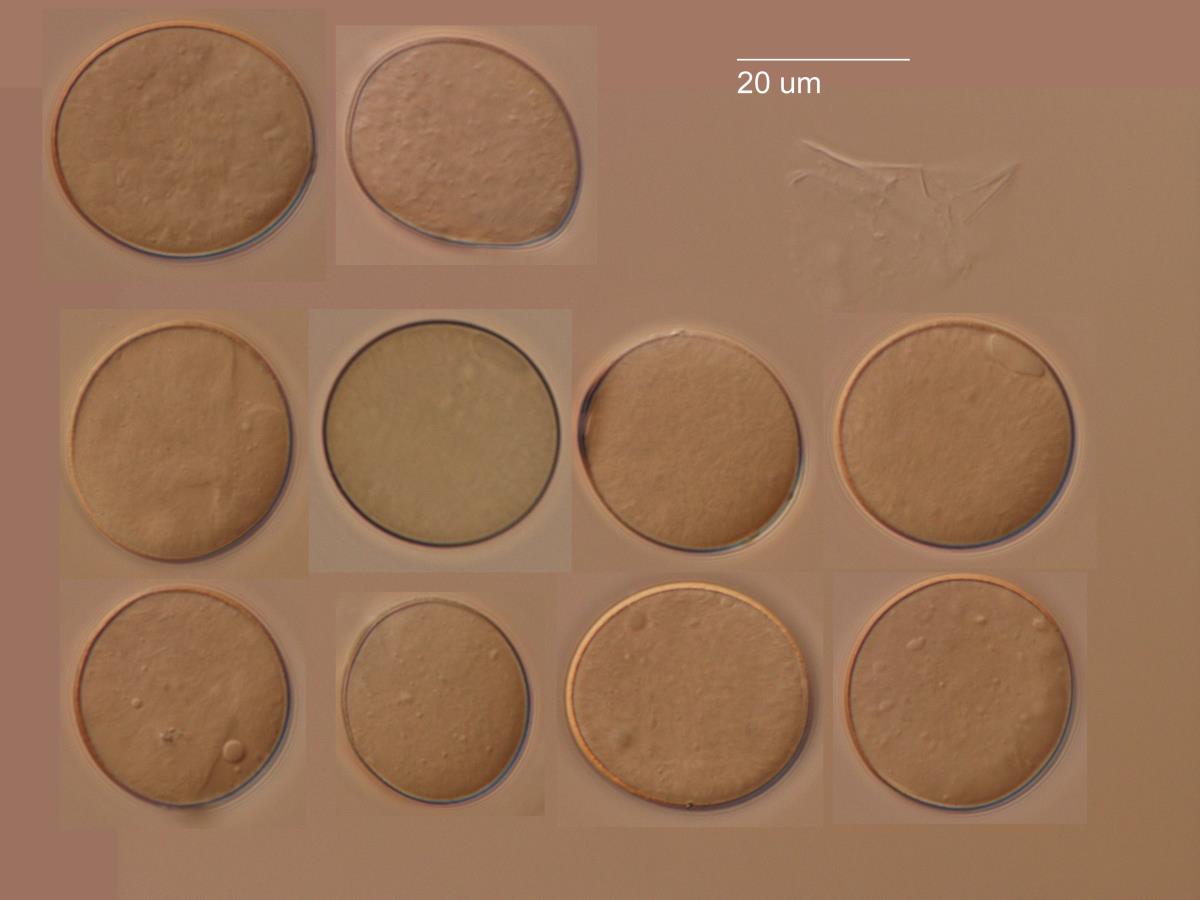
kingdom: Chromista
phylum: Oomycota
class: Peronosporea
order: Peronosporales
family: Peronosporaceae
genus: Peronospora
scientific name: Peronospora conglomerata
